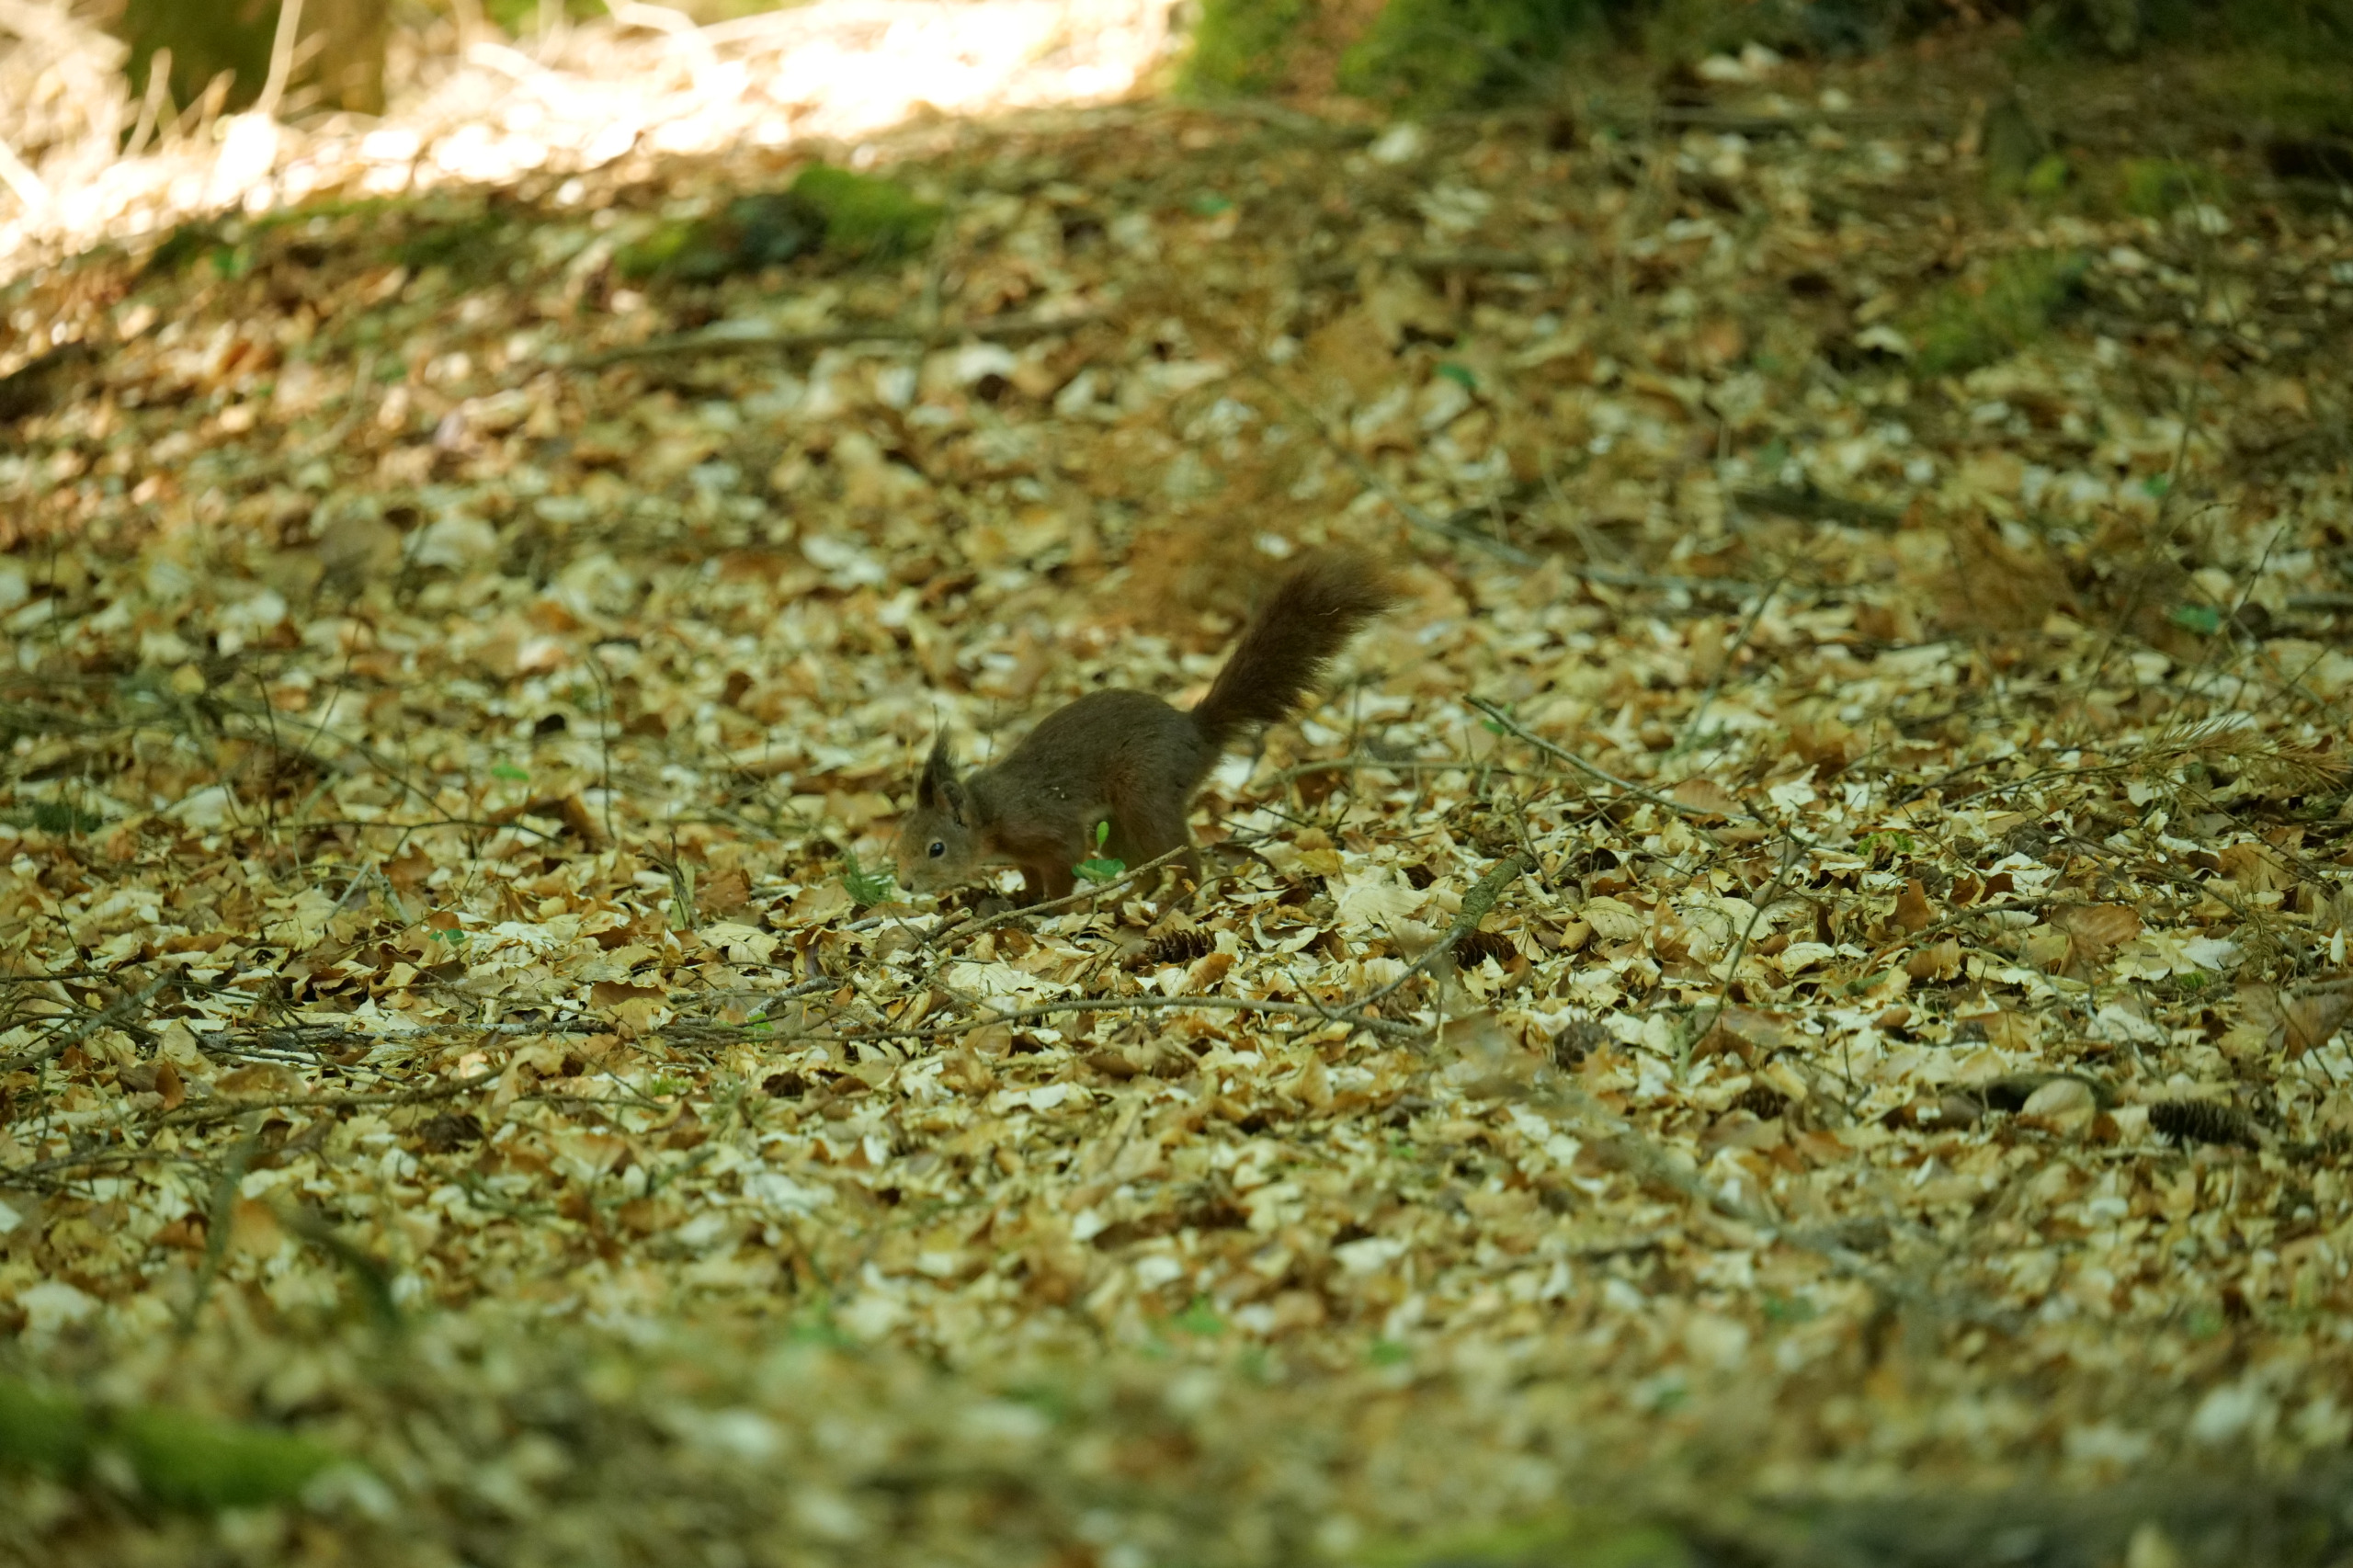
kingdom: Animalia
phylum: Chordata
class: Mammalia
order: Rodentia
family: Sciuridae
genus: Sciurus
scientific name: Sciurus vulgaris
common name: Egern
